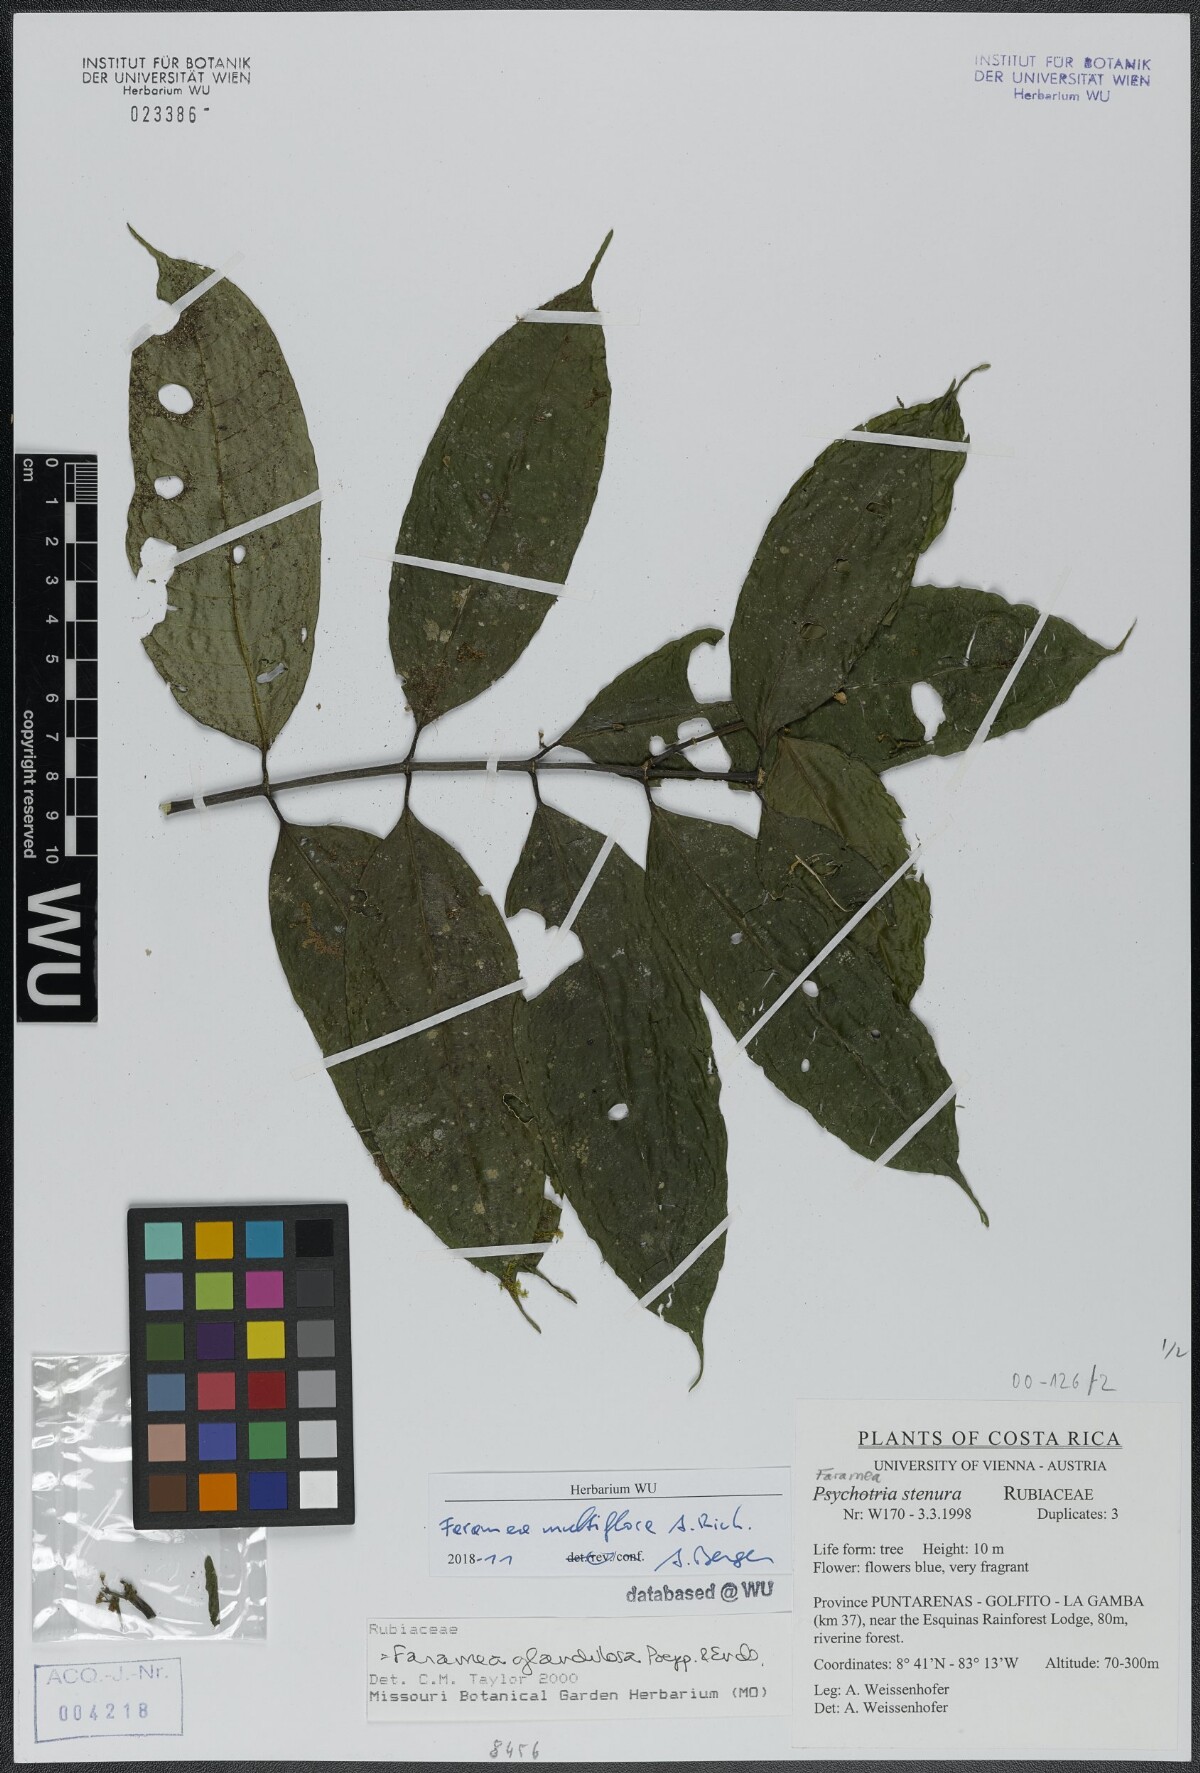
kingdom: Plantae
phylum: Tracheophyta
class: Magnoliopsida
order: Gentianales
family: Rubiaceae
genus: Faramea
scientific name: Faramea multiflora
